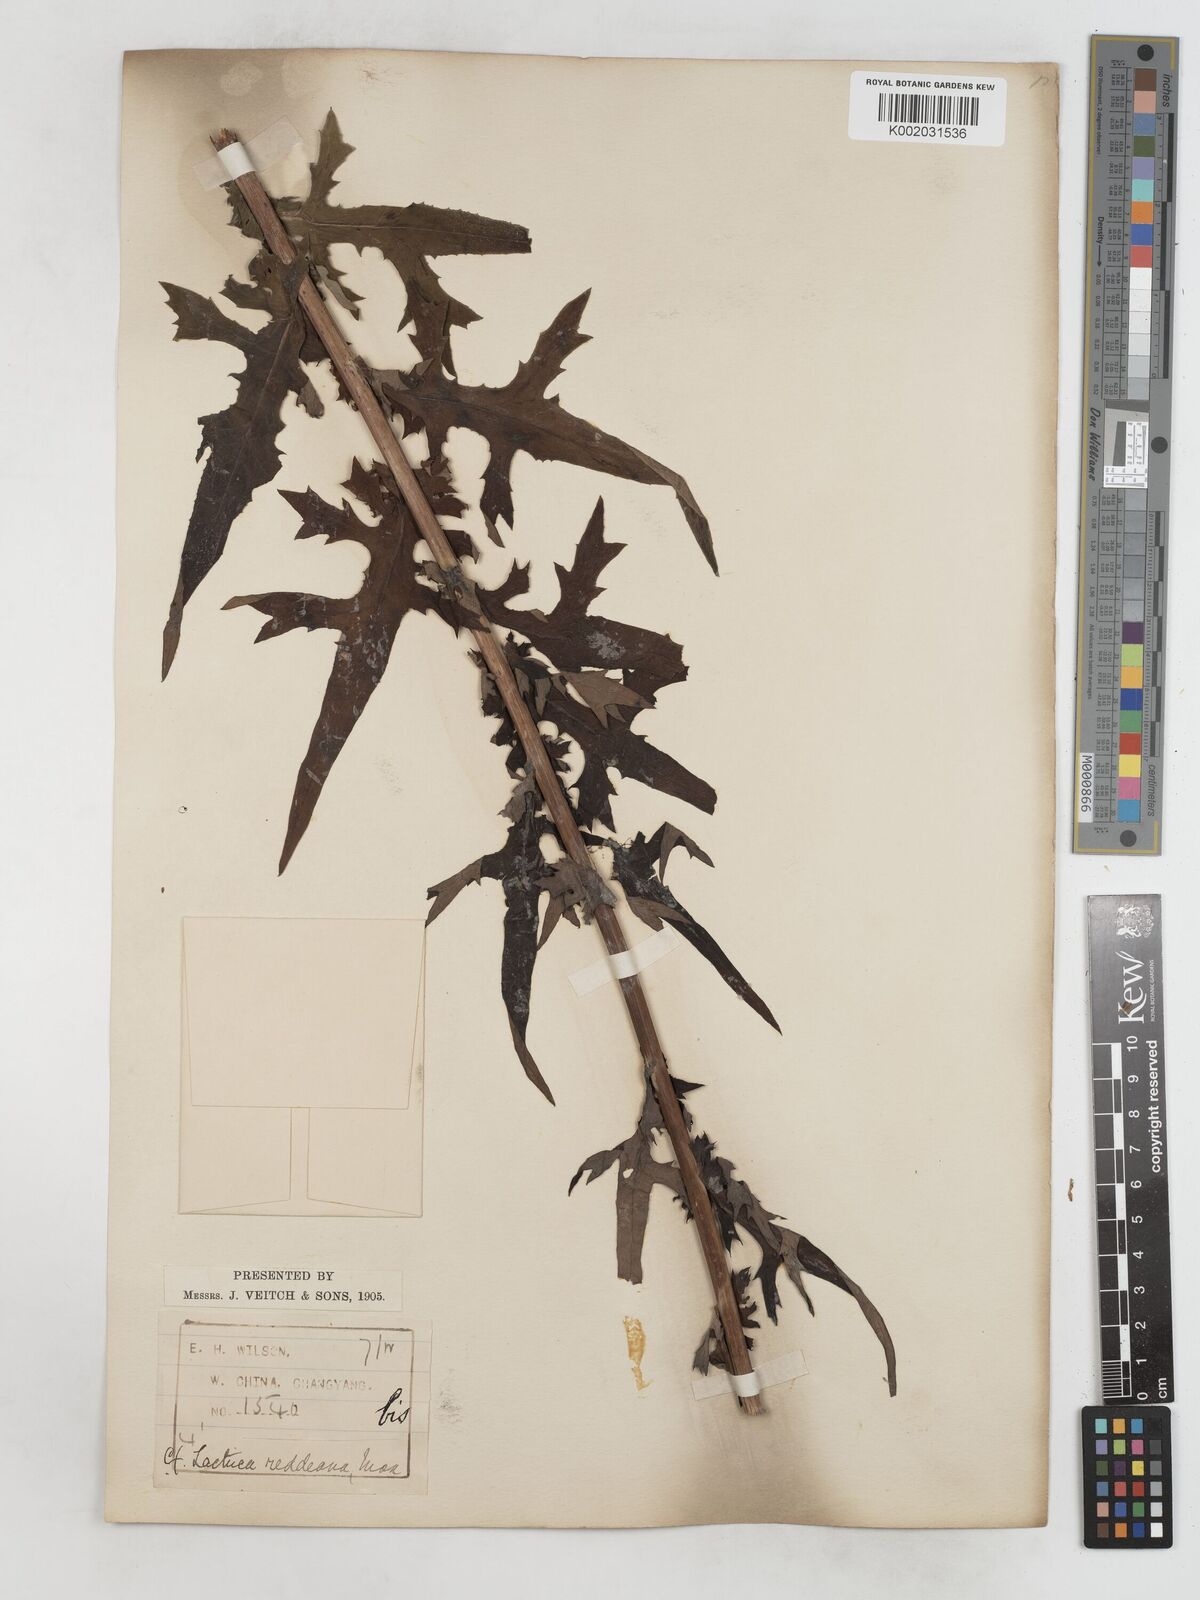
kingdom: Plantae
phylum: Tracheophyta
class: Magnoliopsida
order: Asterales
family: Asteraceae
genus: Lactuca
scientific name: Lactuca formosana
